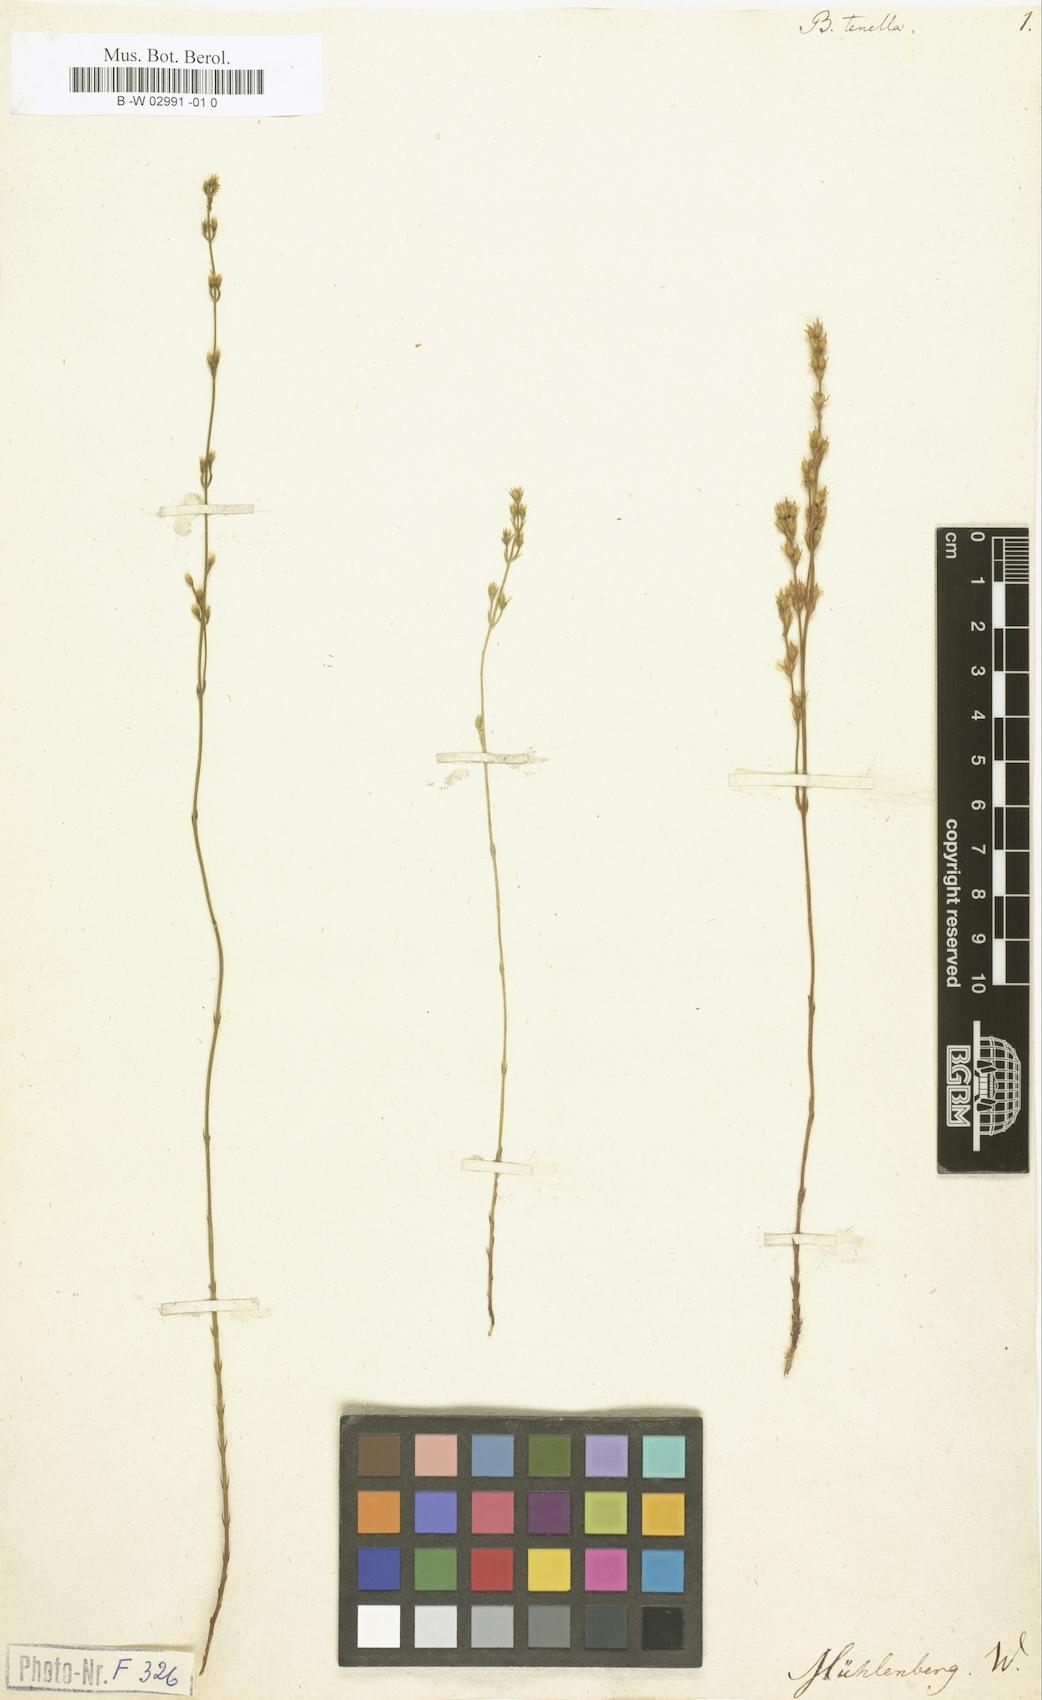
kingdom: Plantae
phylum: Tracheophyta
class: Magnoliopsida
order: Gentianales
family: Gentianaceae
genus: Bartonia
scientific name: Bartonia virginica
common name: Yellow bartonia
